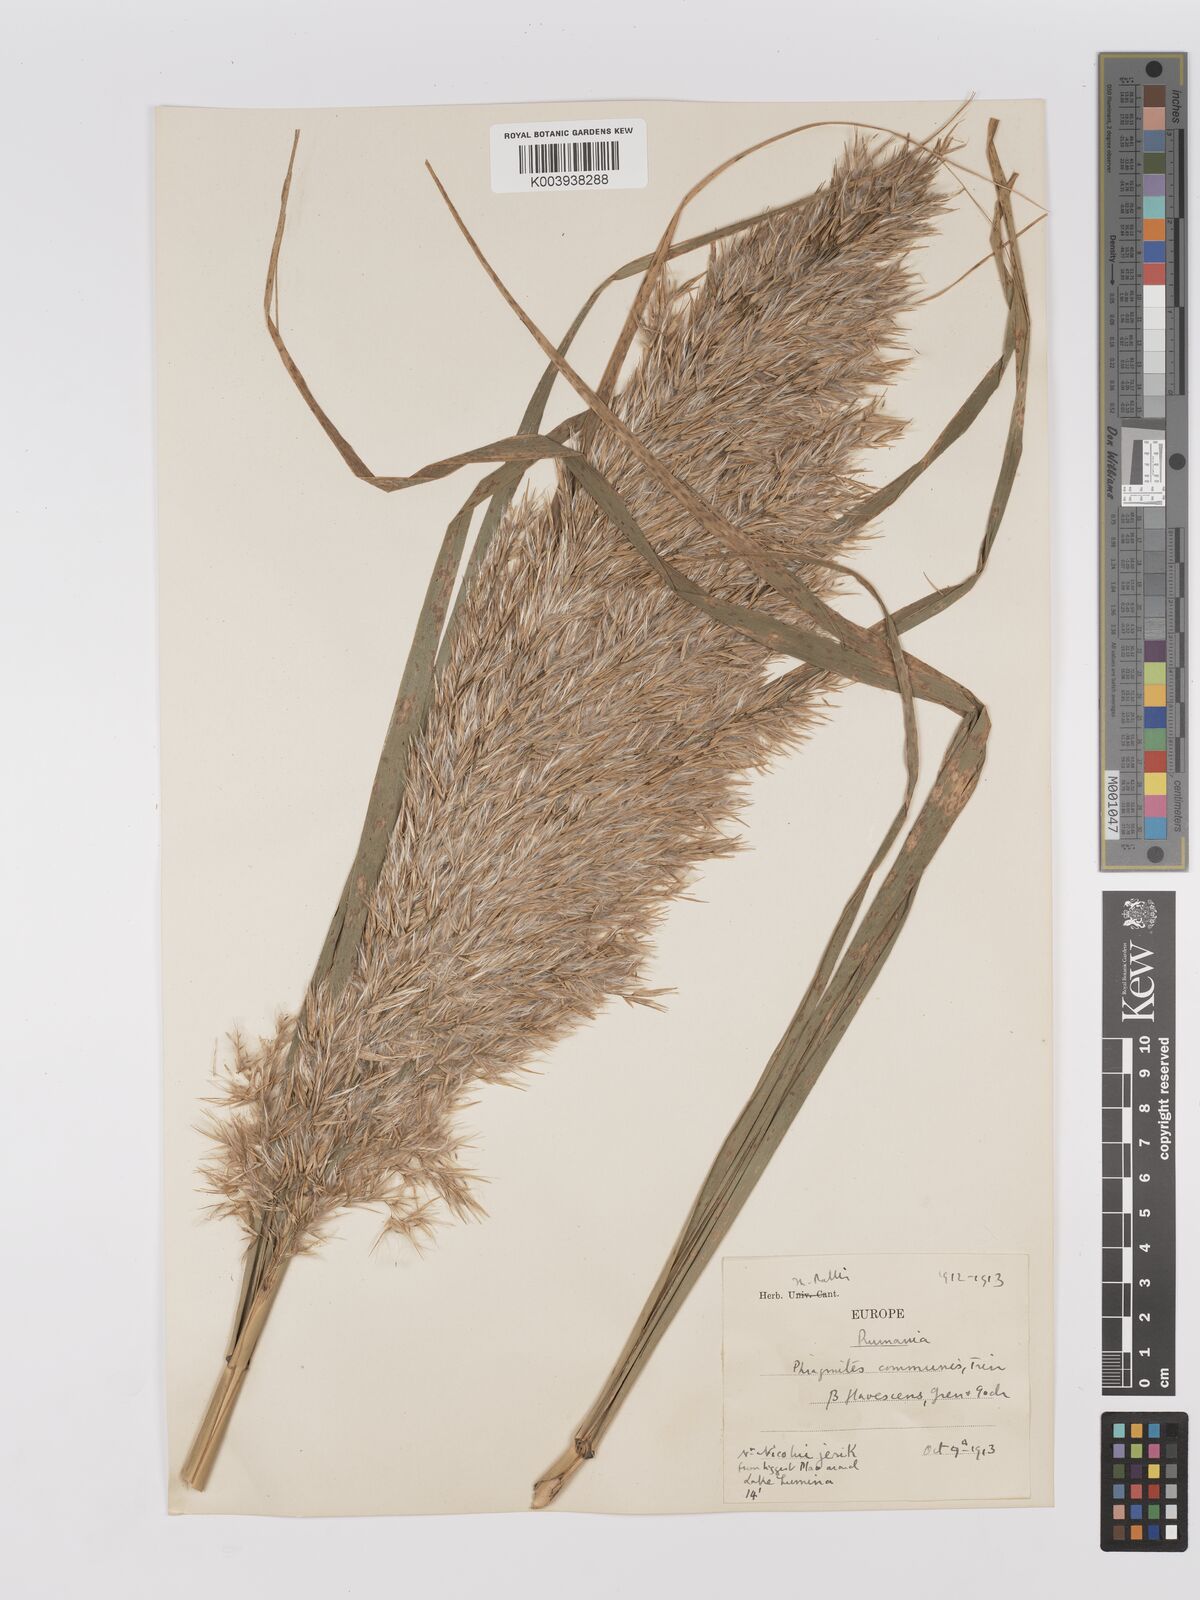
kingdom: Plantae
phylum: Tracheophyta
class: Liliopsida
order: Poales
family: Poaceae
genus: Phragmites
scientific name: Phragmites australis
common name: Common reed
